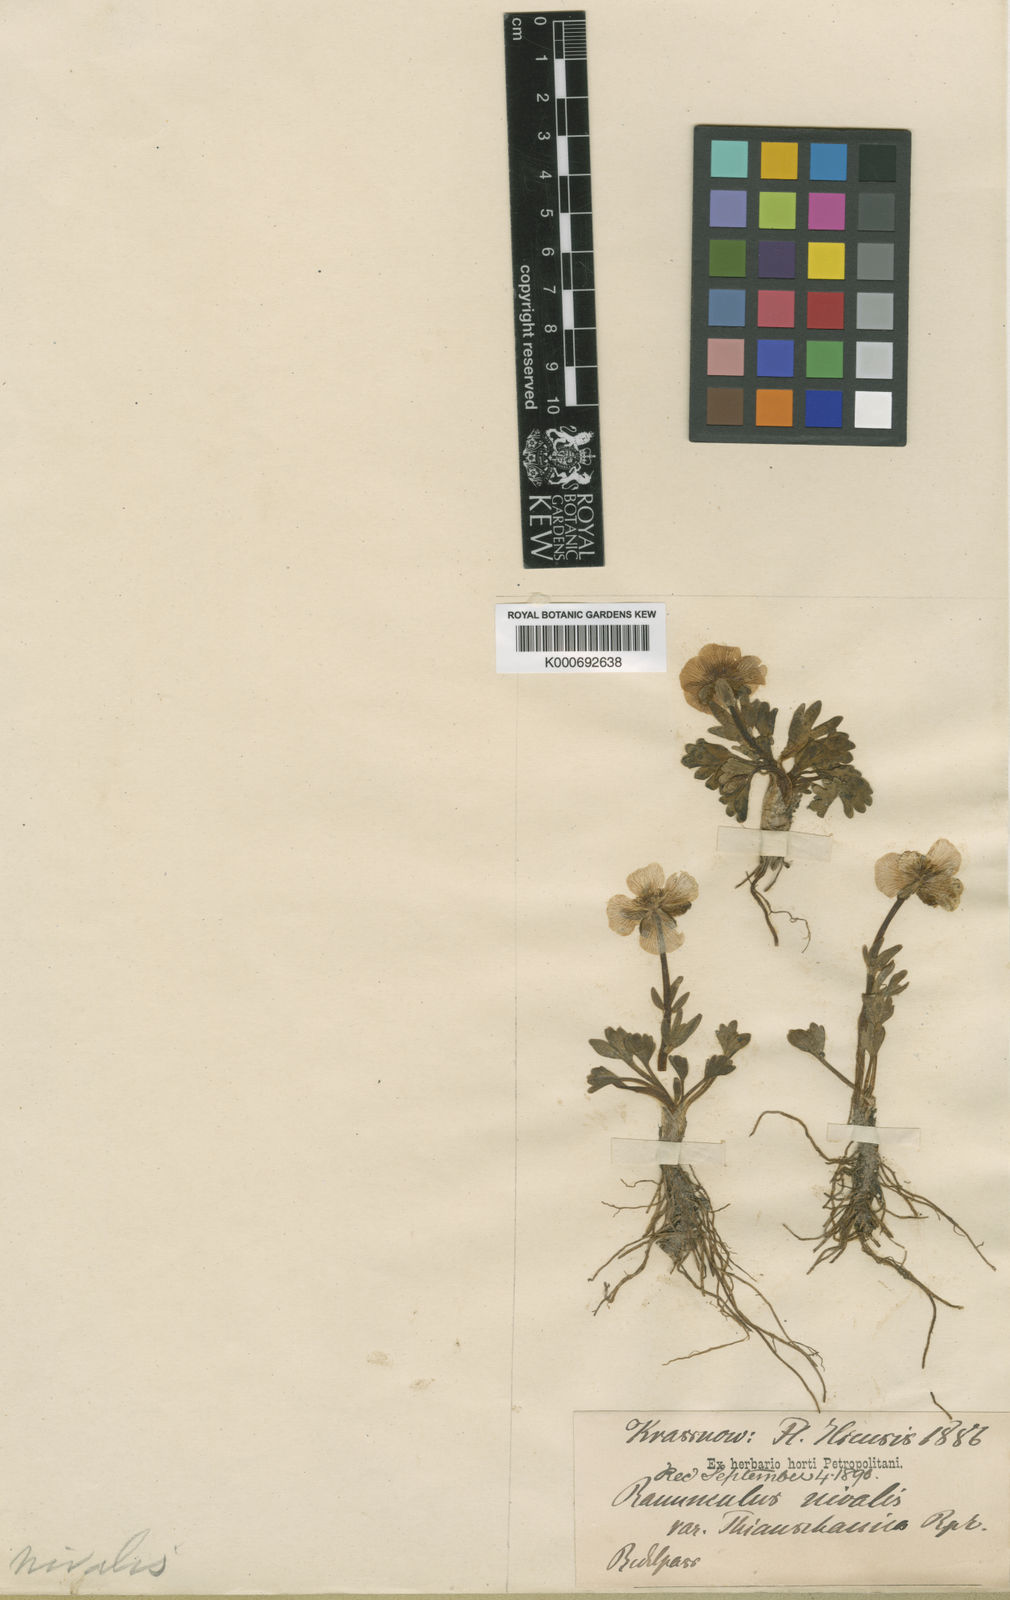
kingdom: Plantae
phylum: Tracheophyta
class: Magnoliopsida
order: Ranunculales
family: Ranunculaceae
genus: Ranunculus
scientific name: Ranunculus nivalis
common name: Snow buttercup
